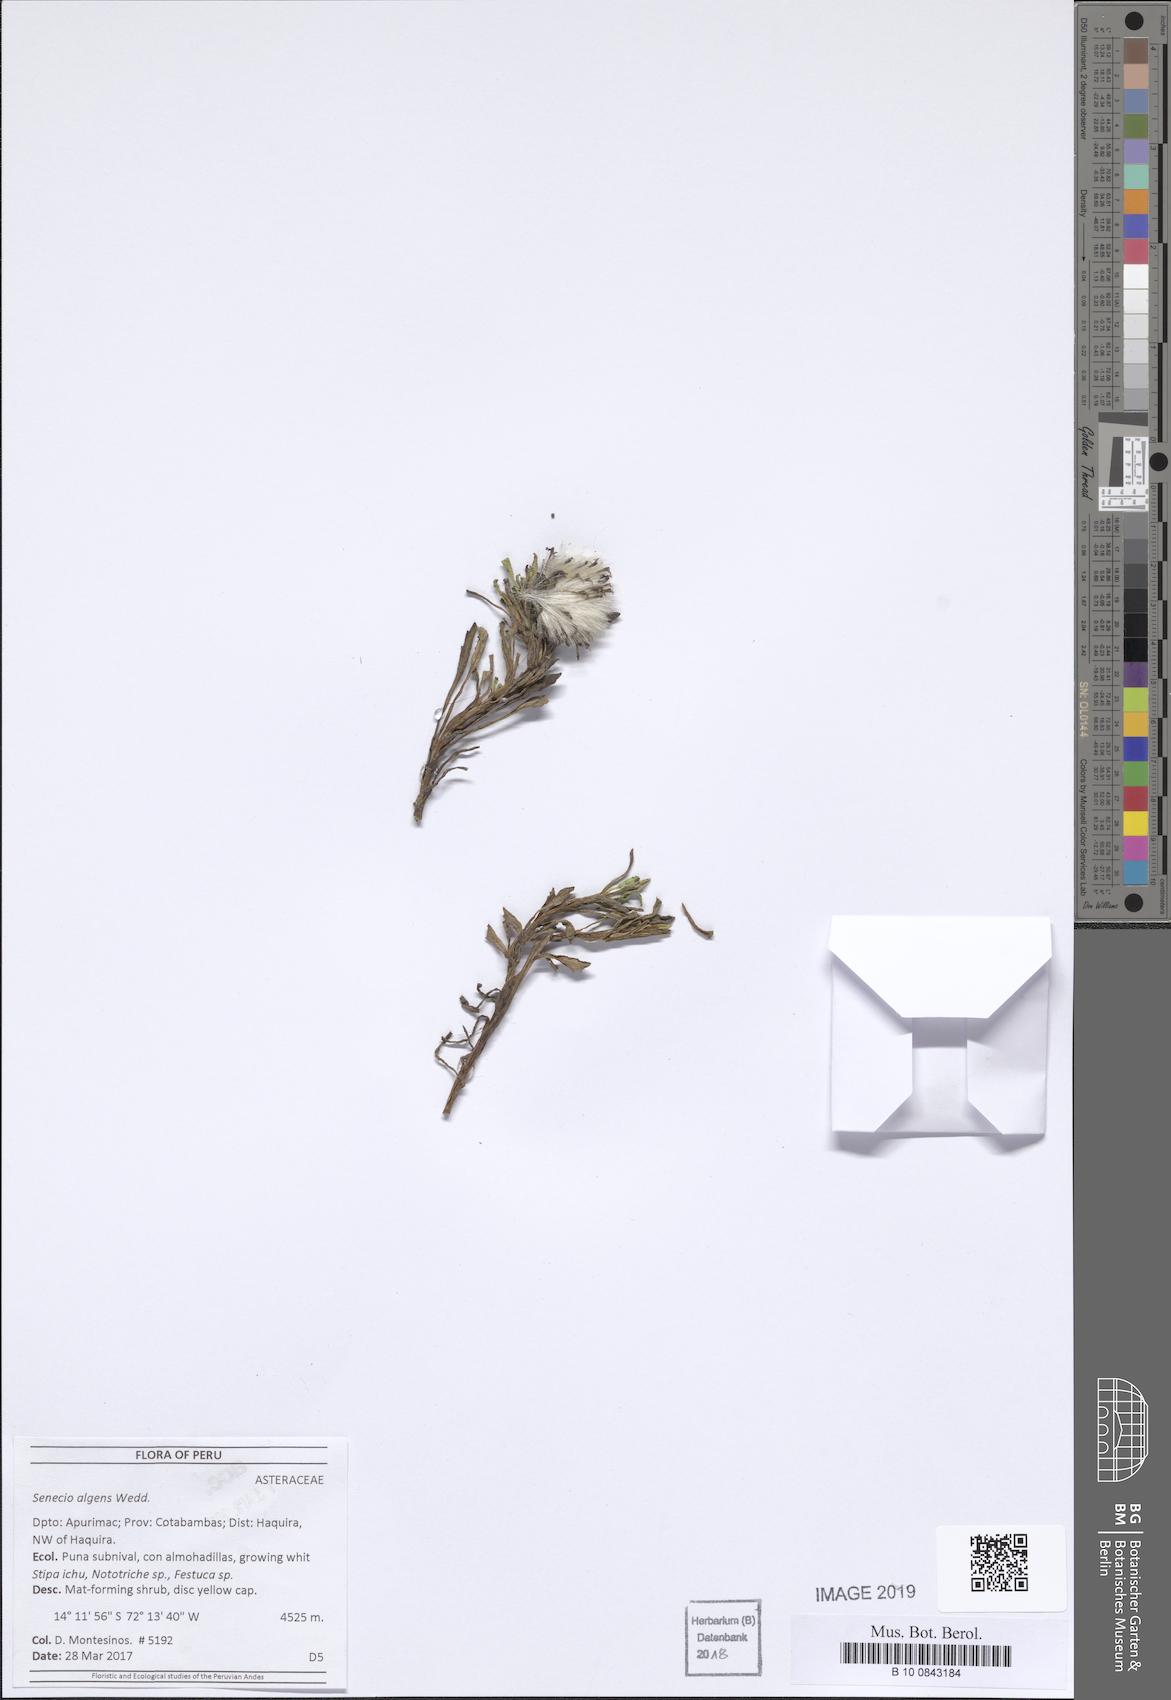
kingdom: Plantae
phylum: Tracheophyta
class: Magnoliopsida
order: Asterales
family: Asteraceae
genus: Senecio
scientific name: Senecio algens
